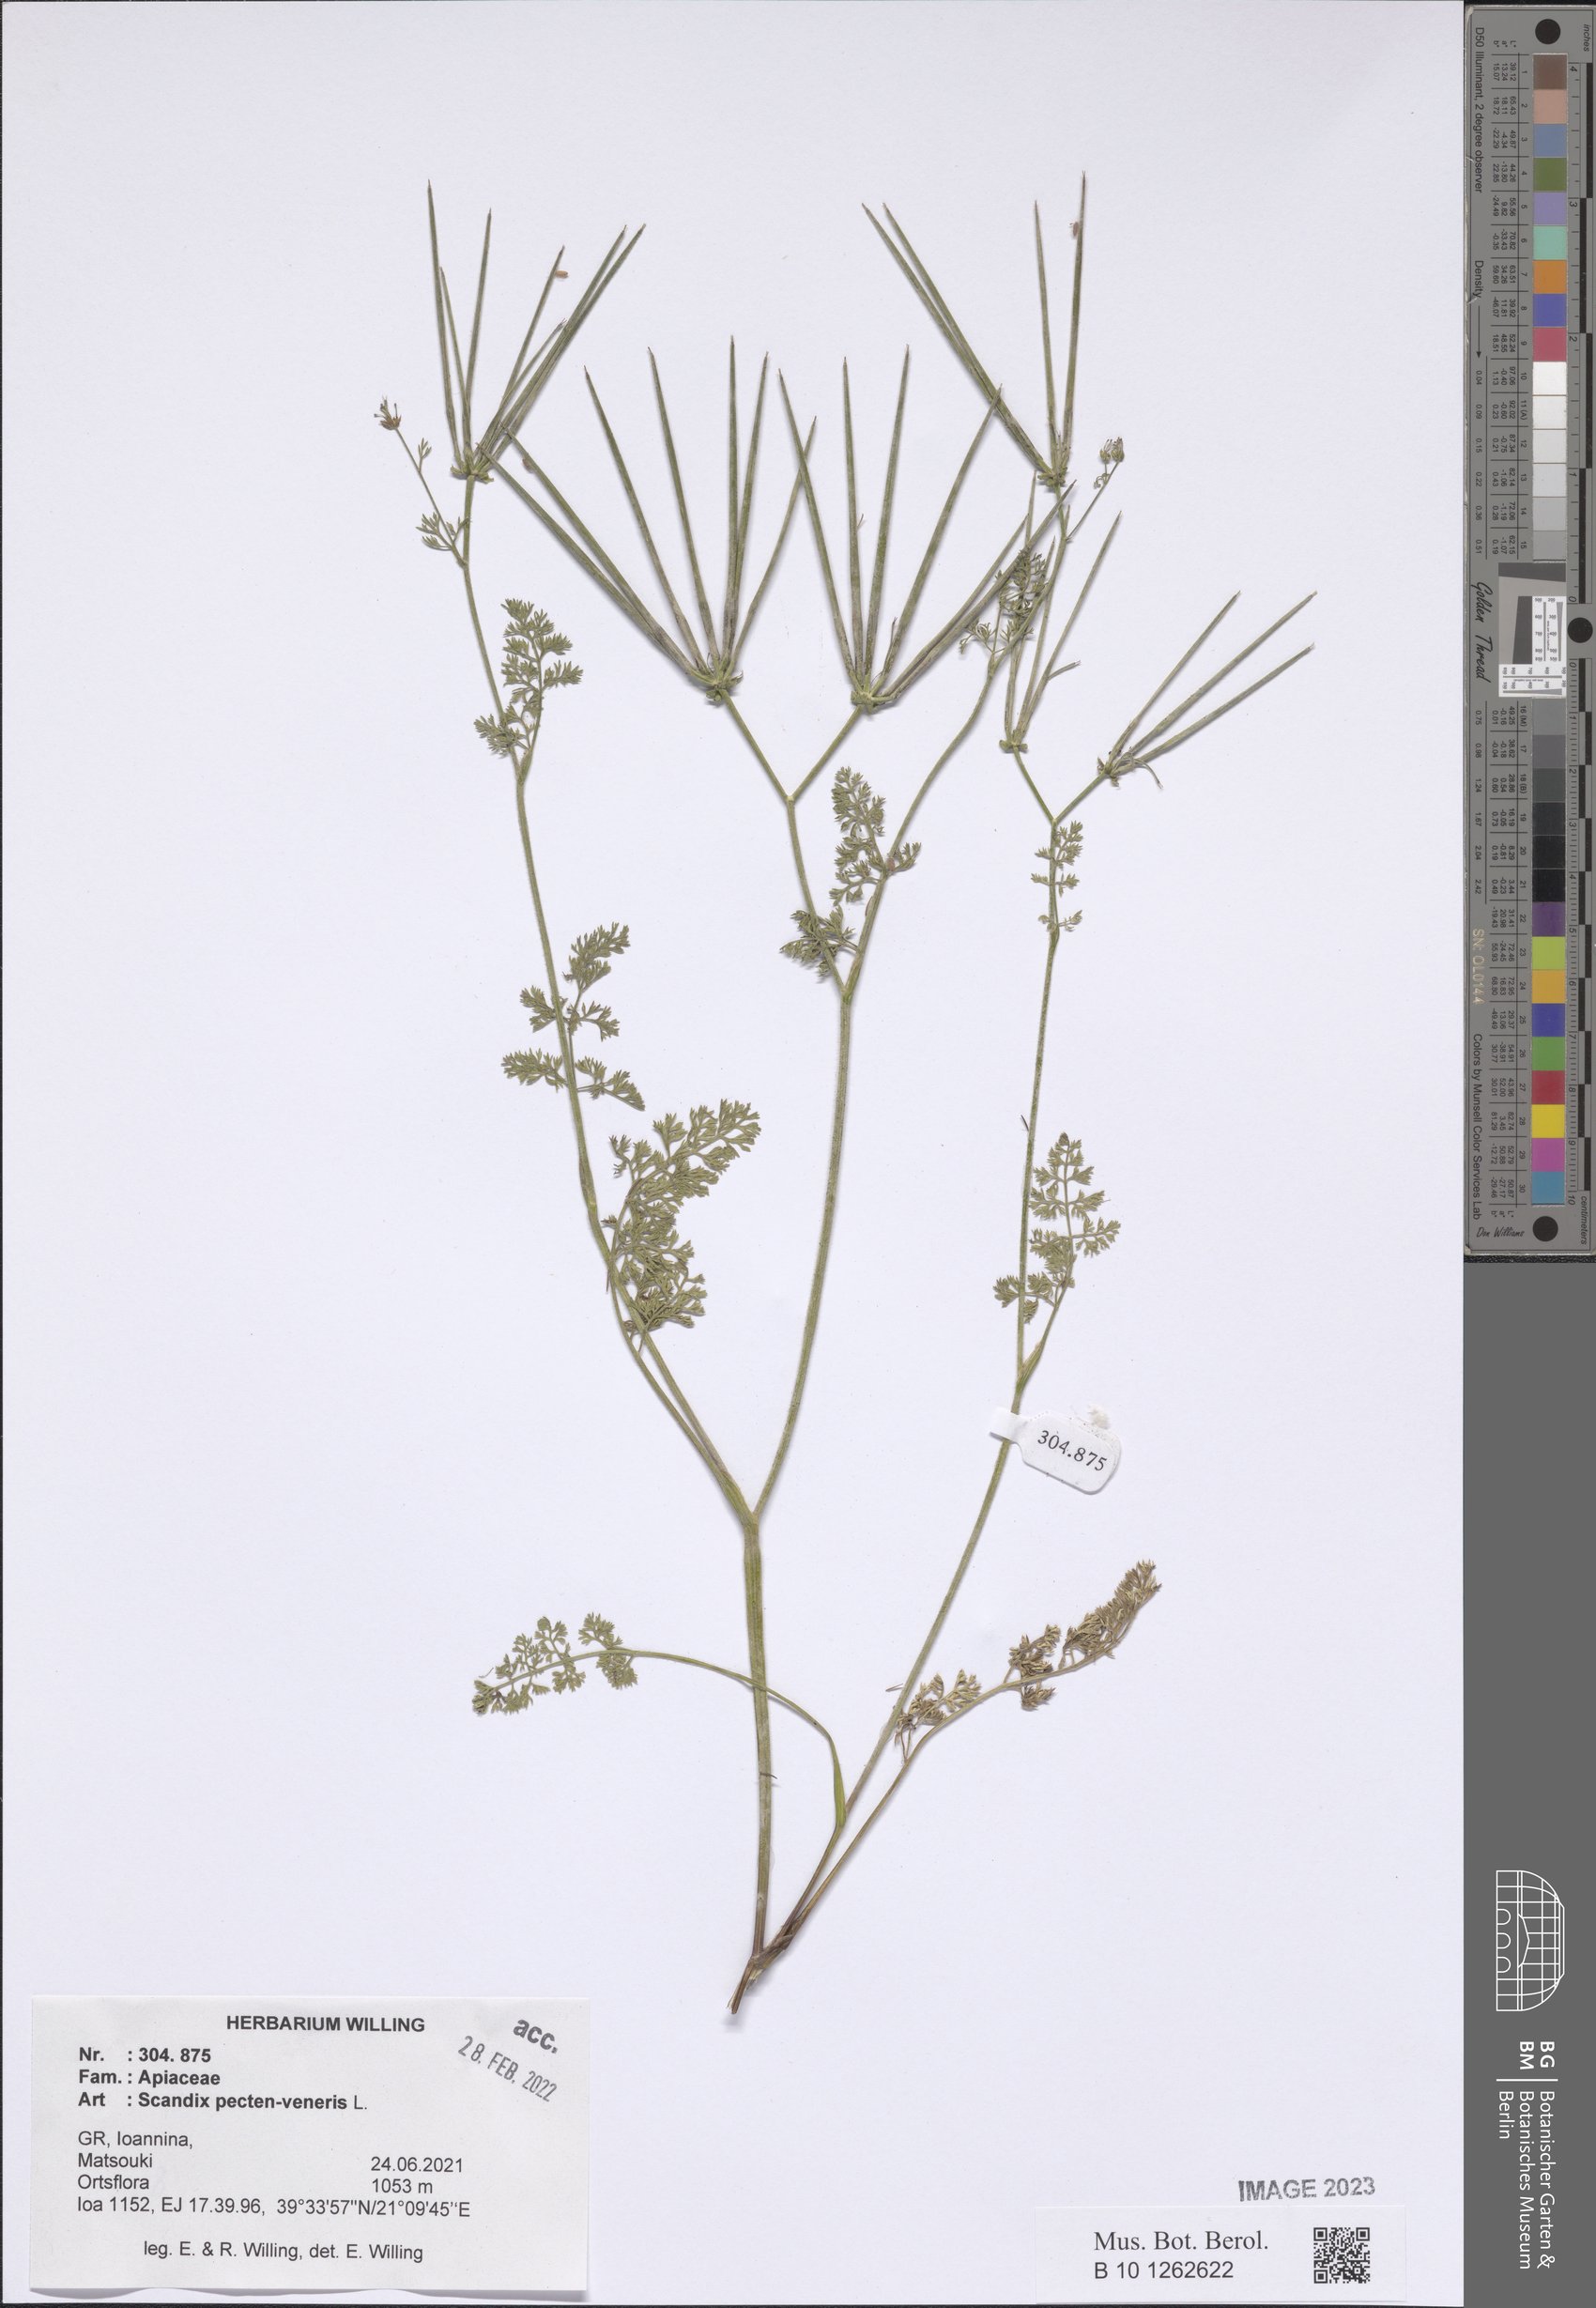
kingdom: Plantae
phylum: Tracheophyta
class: Magnoliopsida
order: Apiales
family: Apiaceae
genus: Scandix
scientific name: Scandix pecten-veneris
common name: Shepherd's-needle
